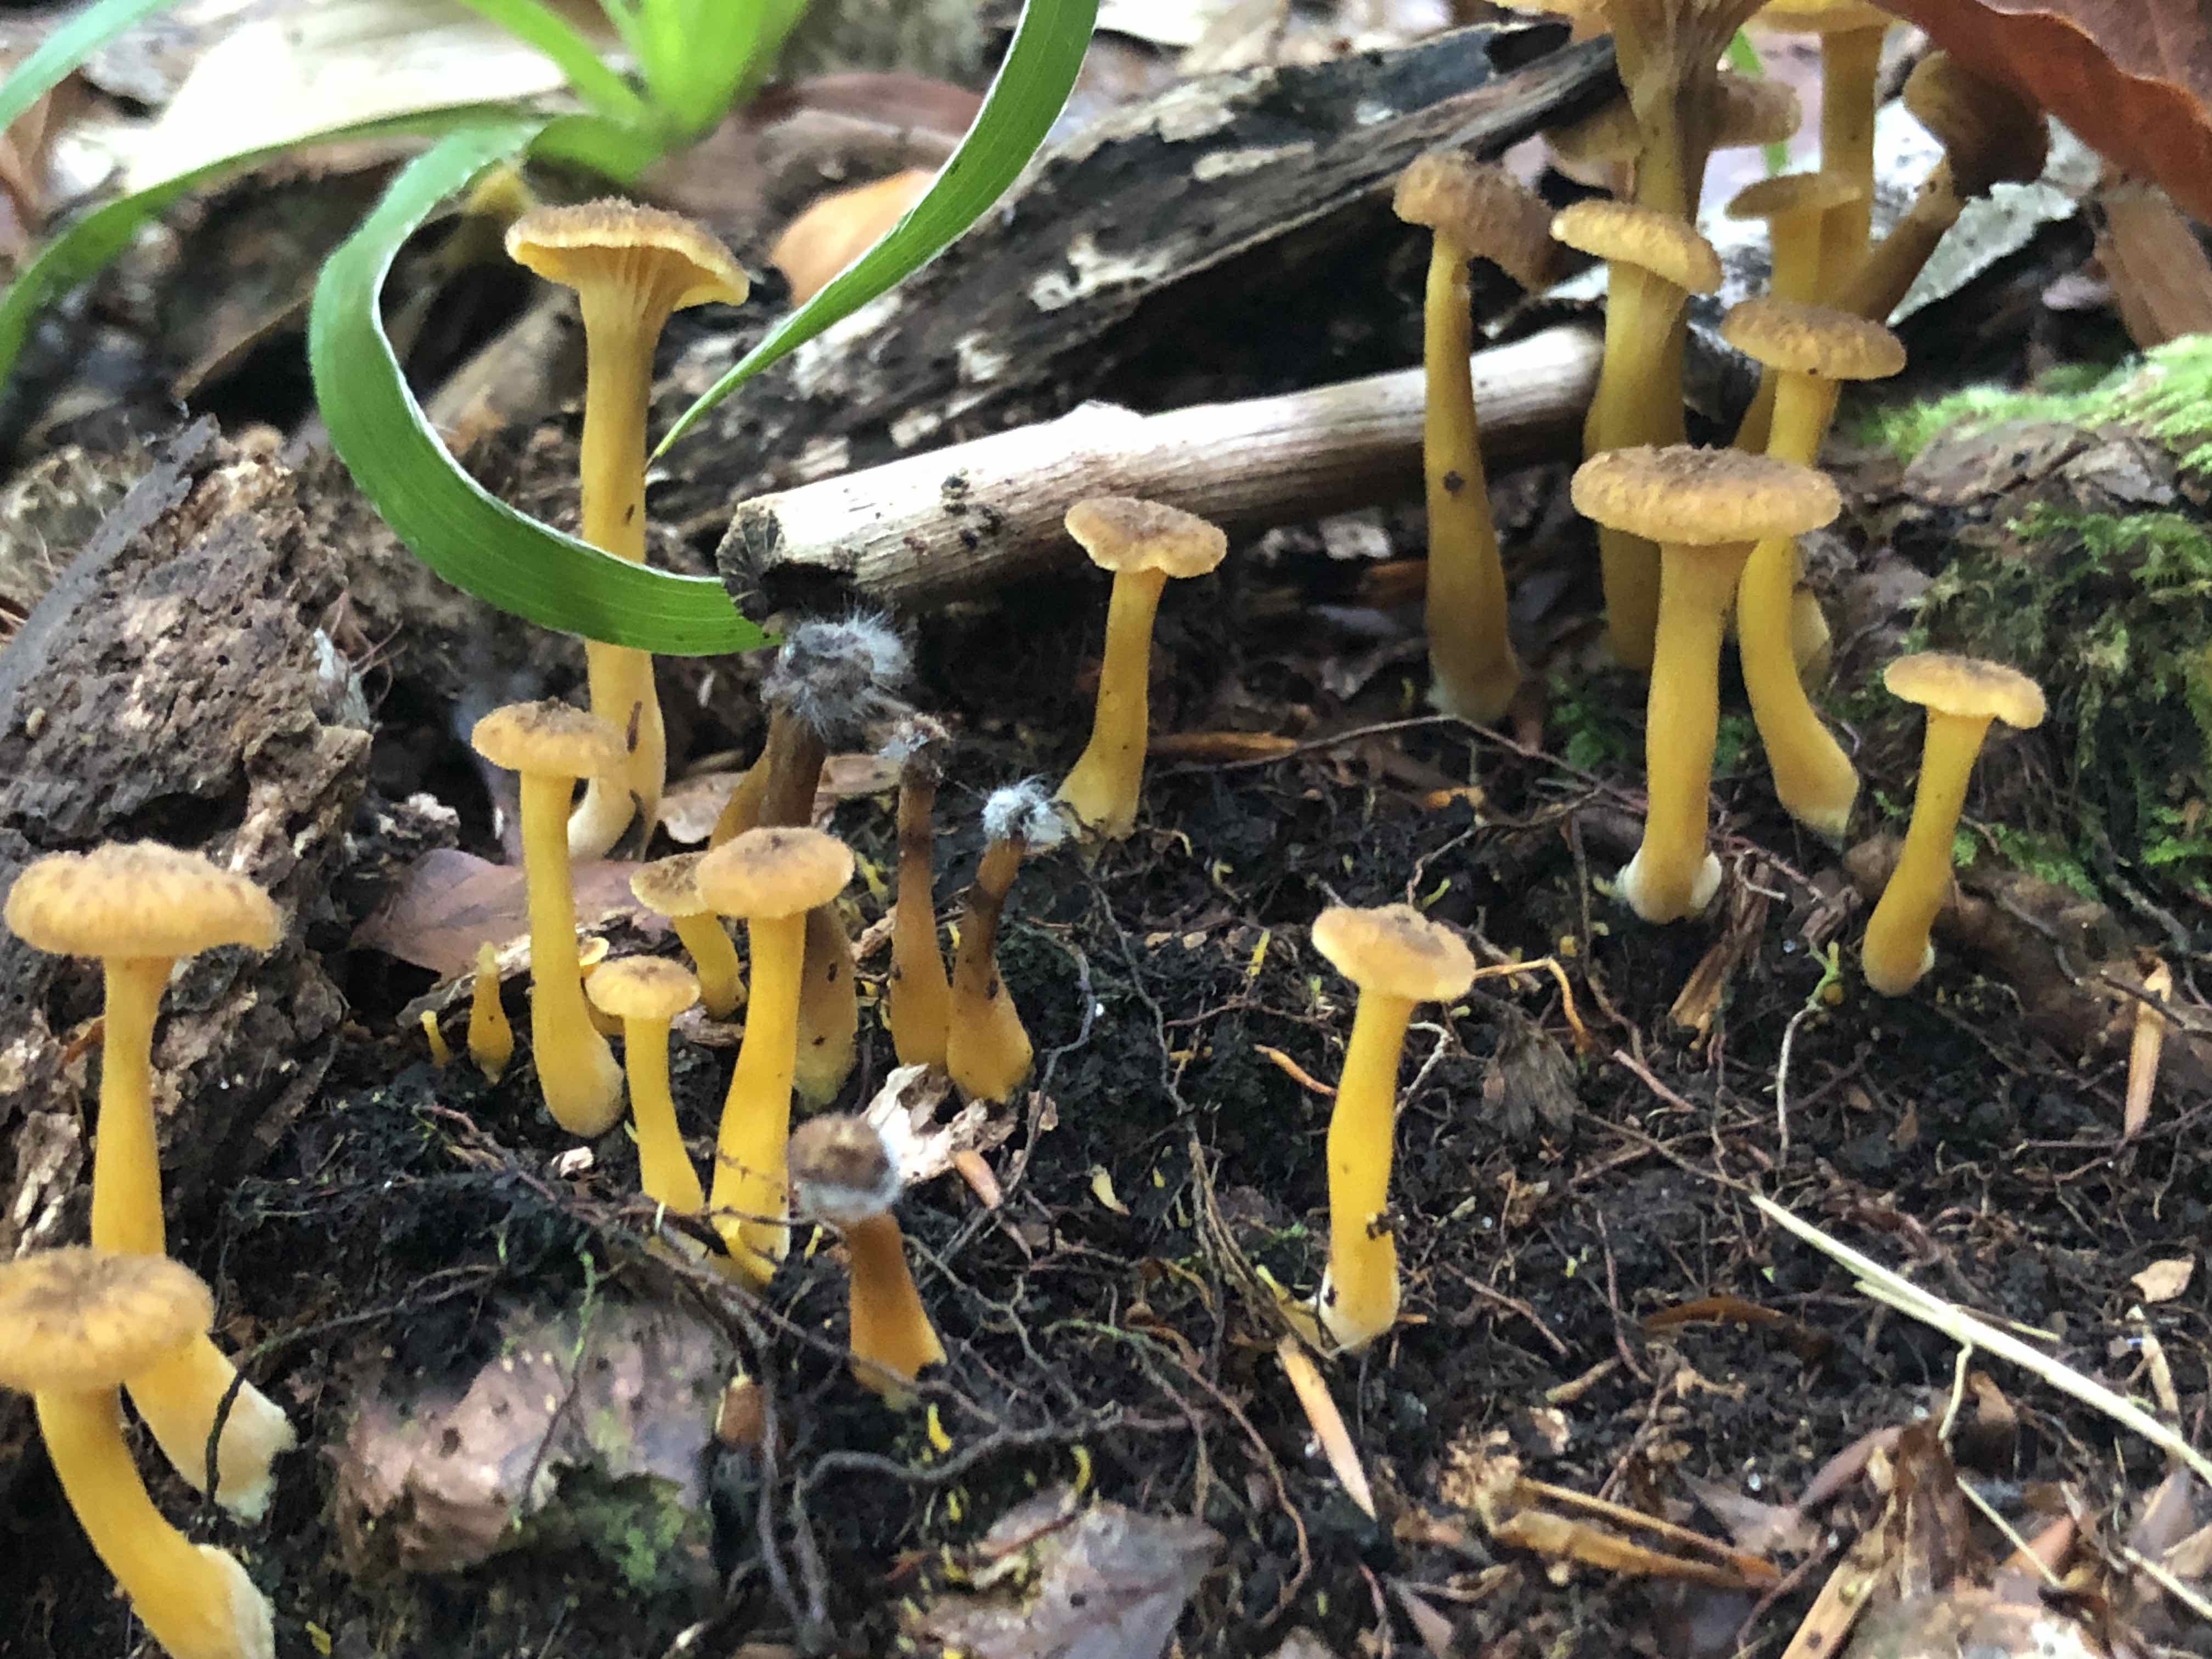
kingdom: Fungi
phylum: Basidiomycota
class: Agaricomycetes
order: Cantharellales
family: Hydnaceae
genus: Craterellus
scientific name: Craterellus tubaeformis
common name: tragt-kantarel
